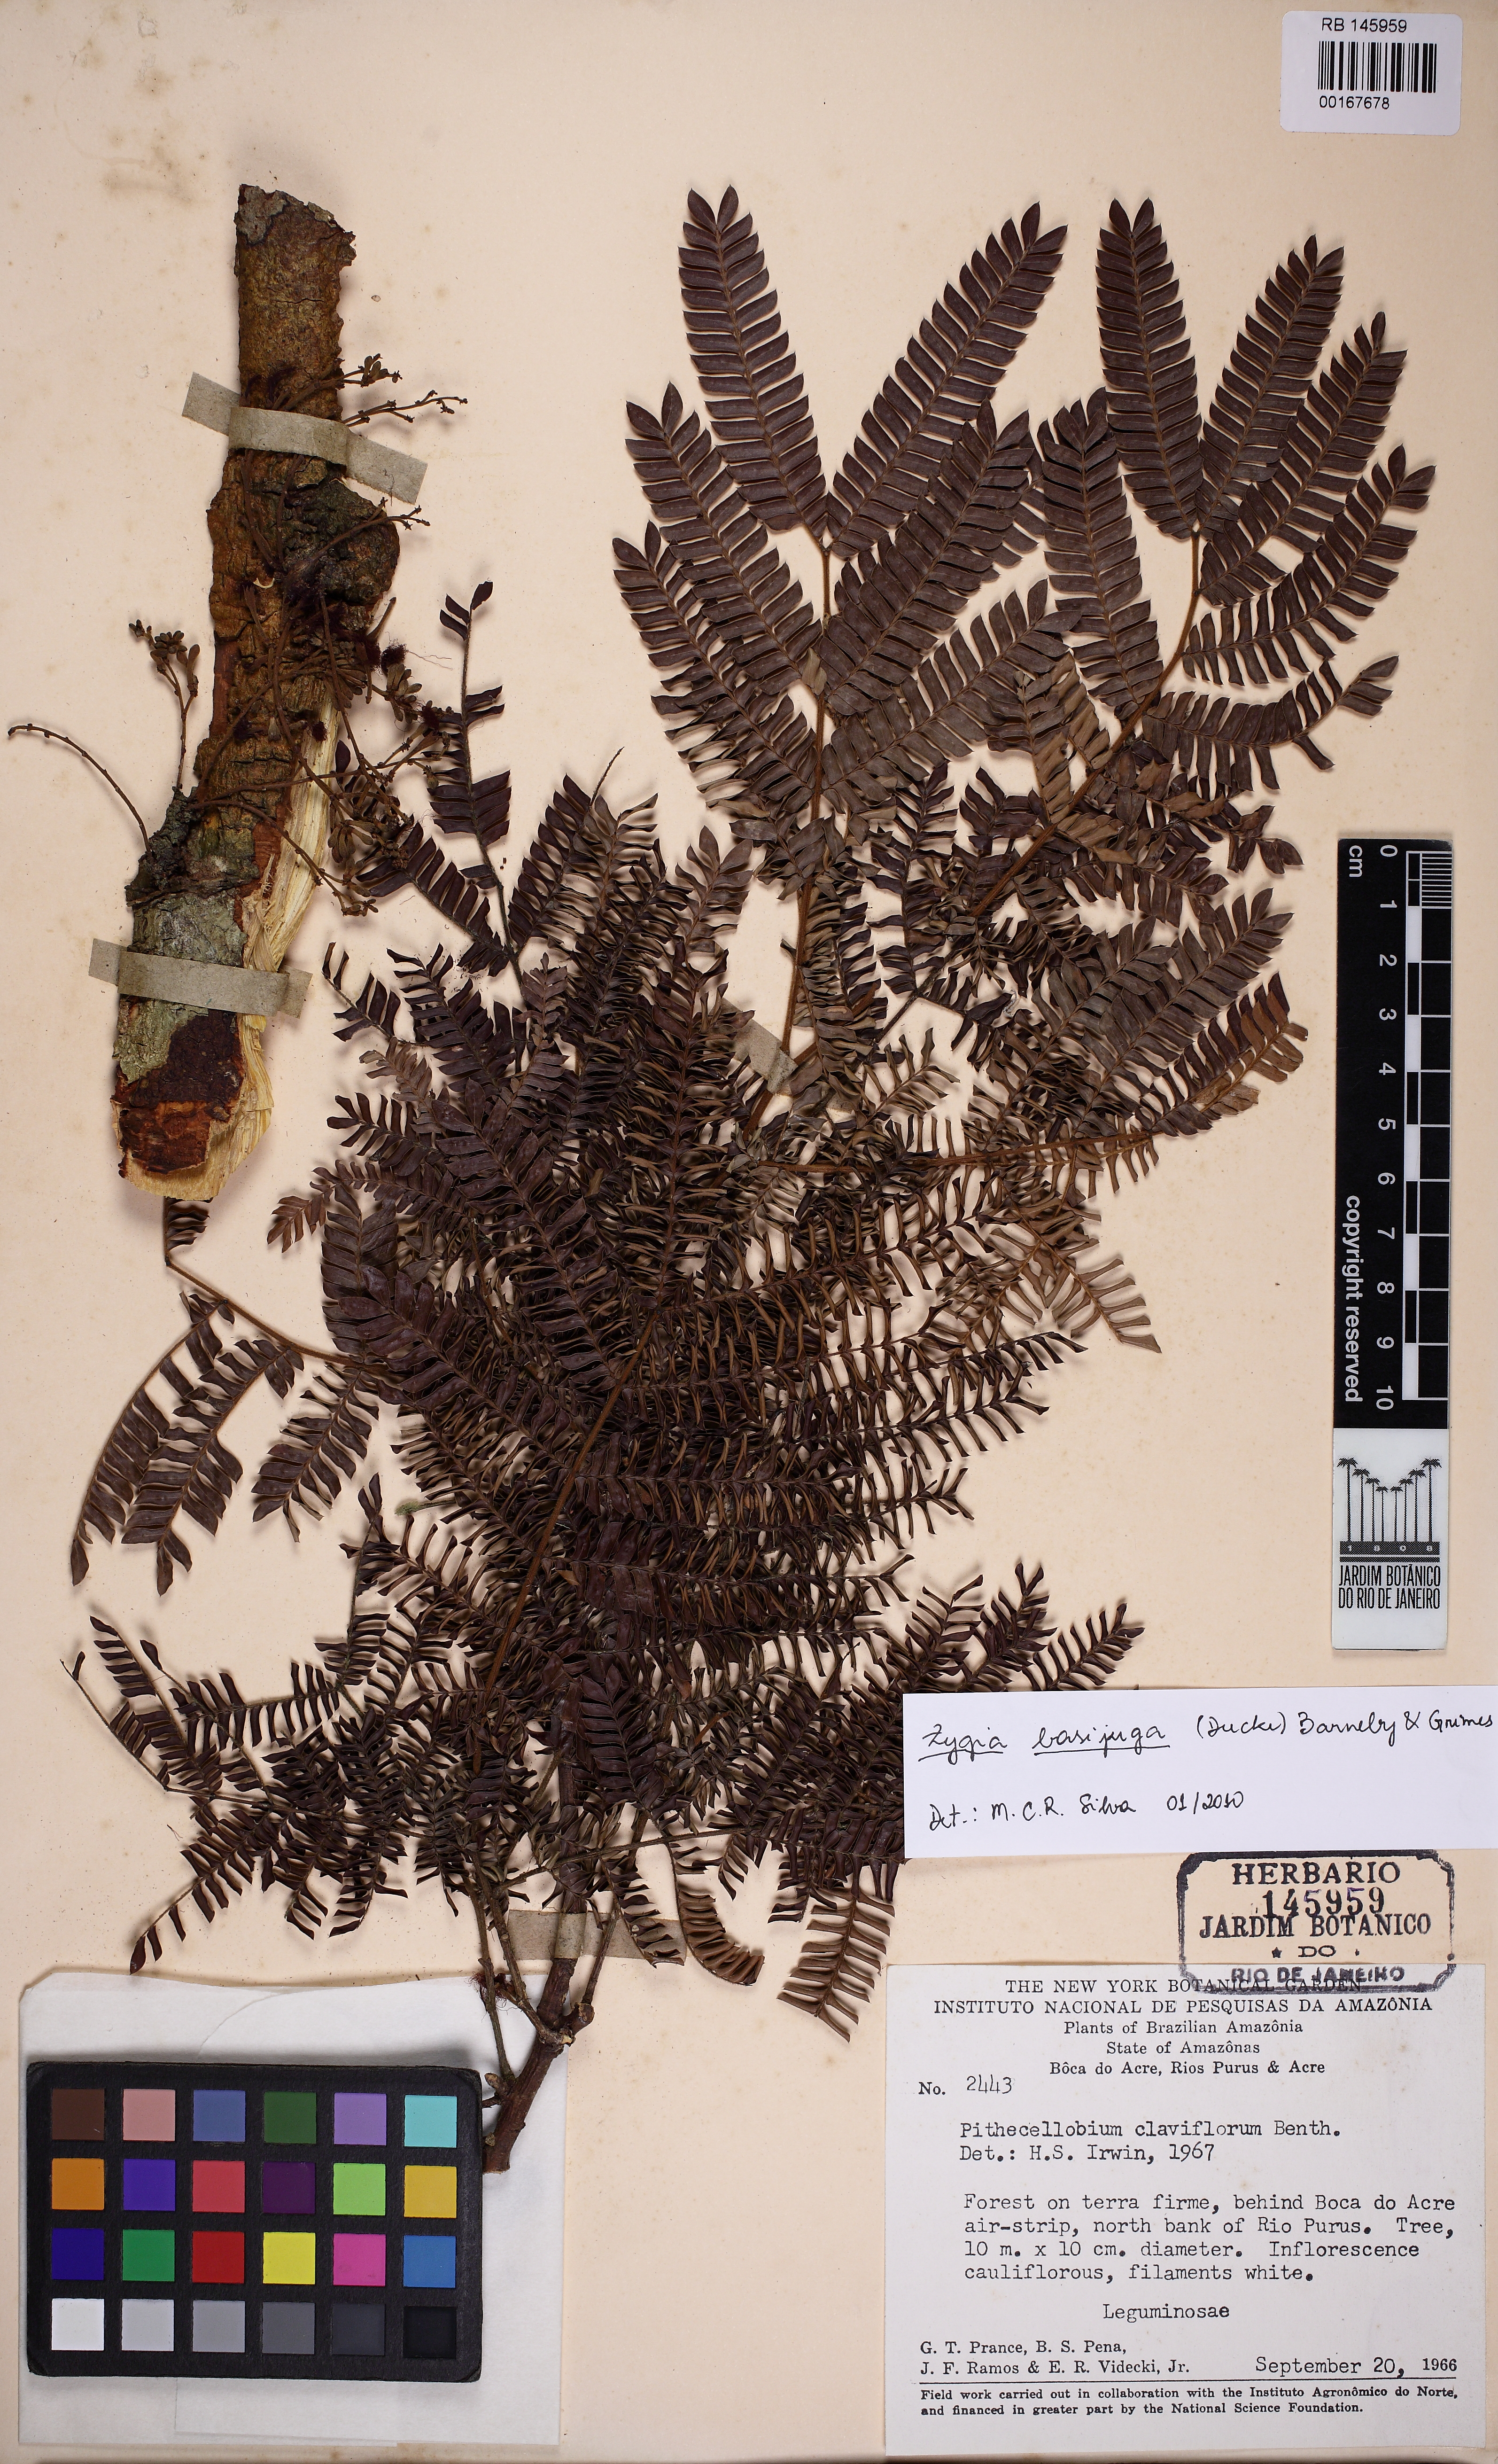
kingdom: Plantae
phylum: Tracheophyta
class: Magnoliopsida
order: Fabales
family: Fabaceae
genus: Zygia
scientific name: Zygia basijuga
